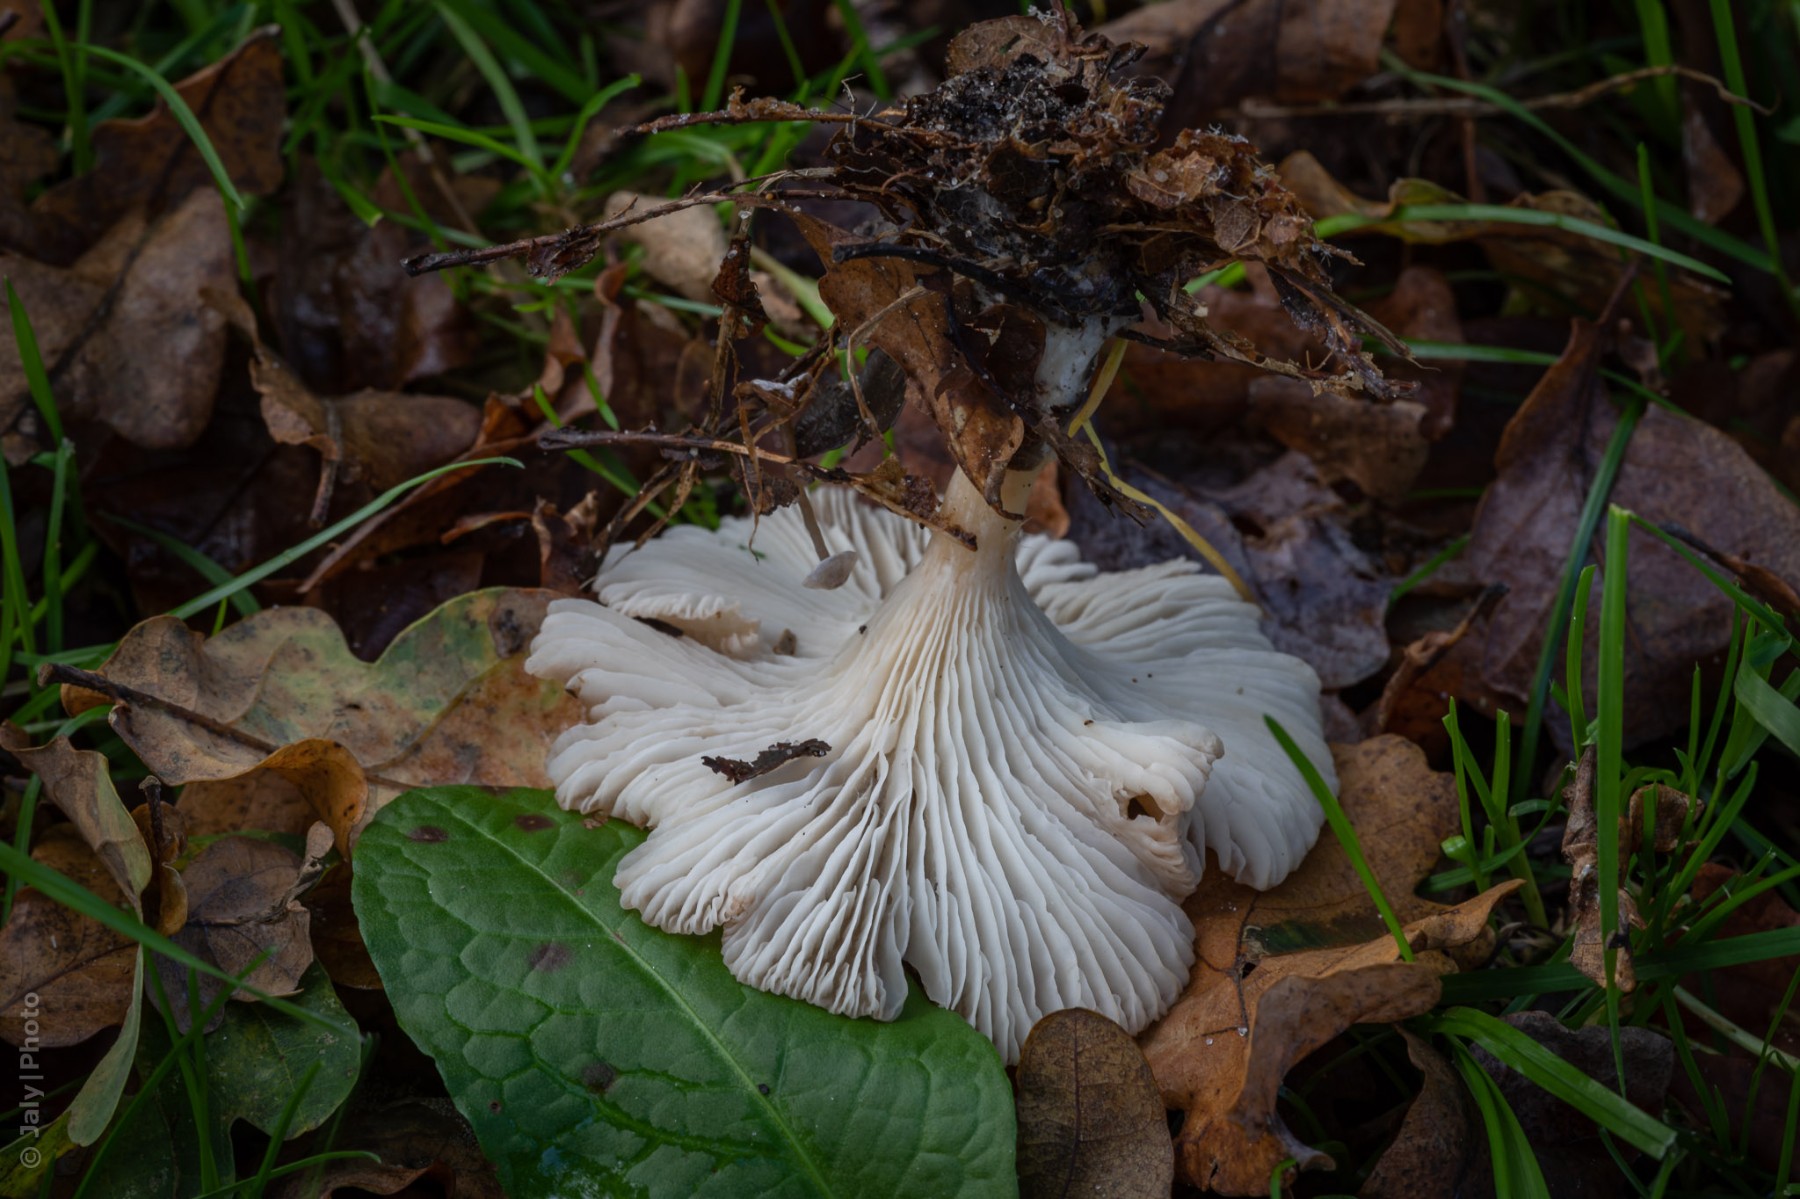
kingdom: Fungi
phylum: Basidiomycota
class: Agaricomycetes
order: Agaricales
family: Tricholomataceae
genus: Infundibulicybe
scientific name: Infundibulicybe gibba
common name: almindelig tragthat
